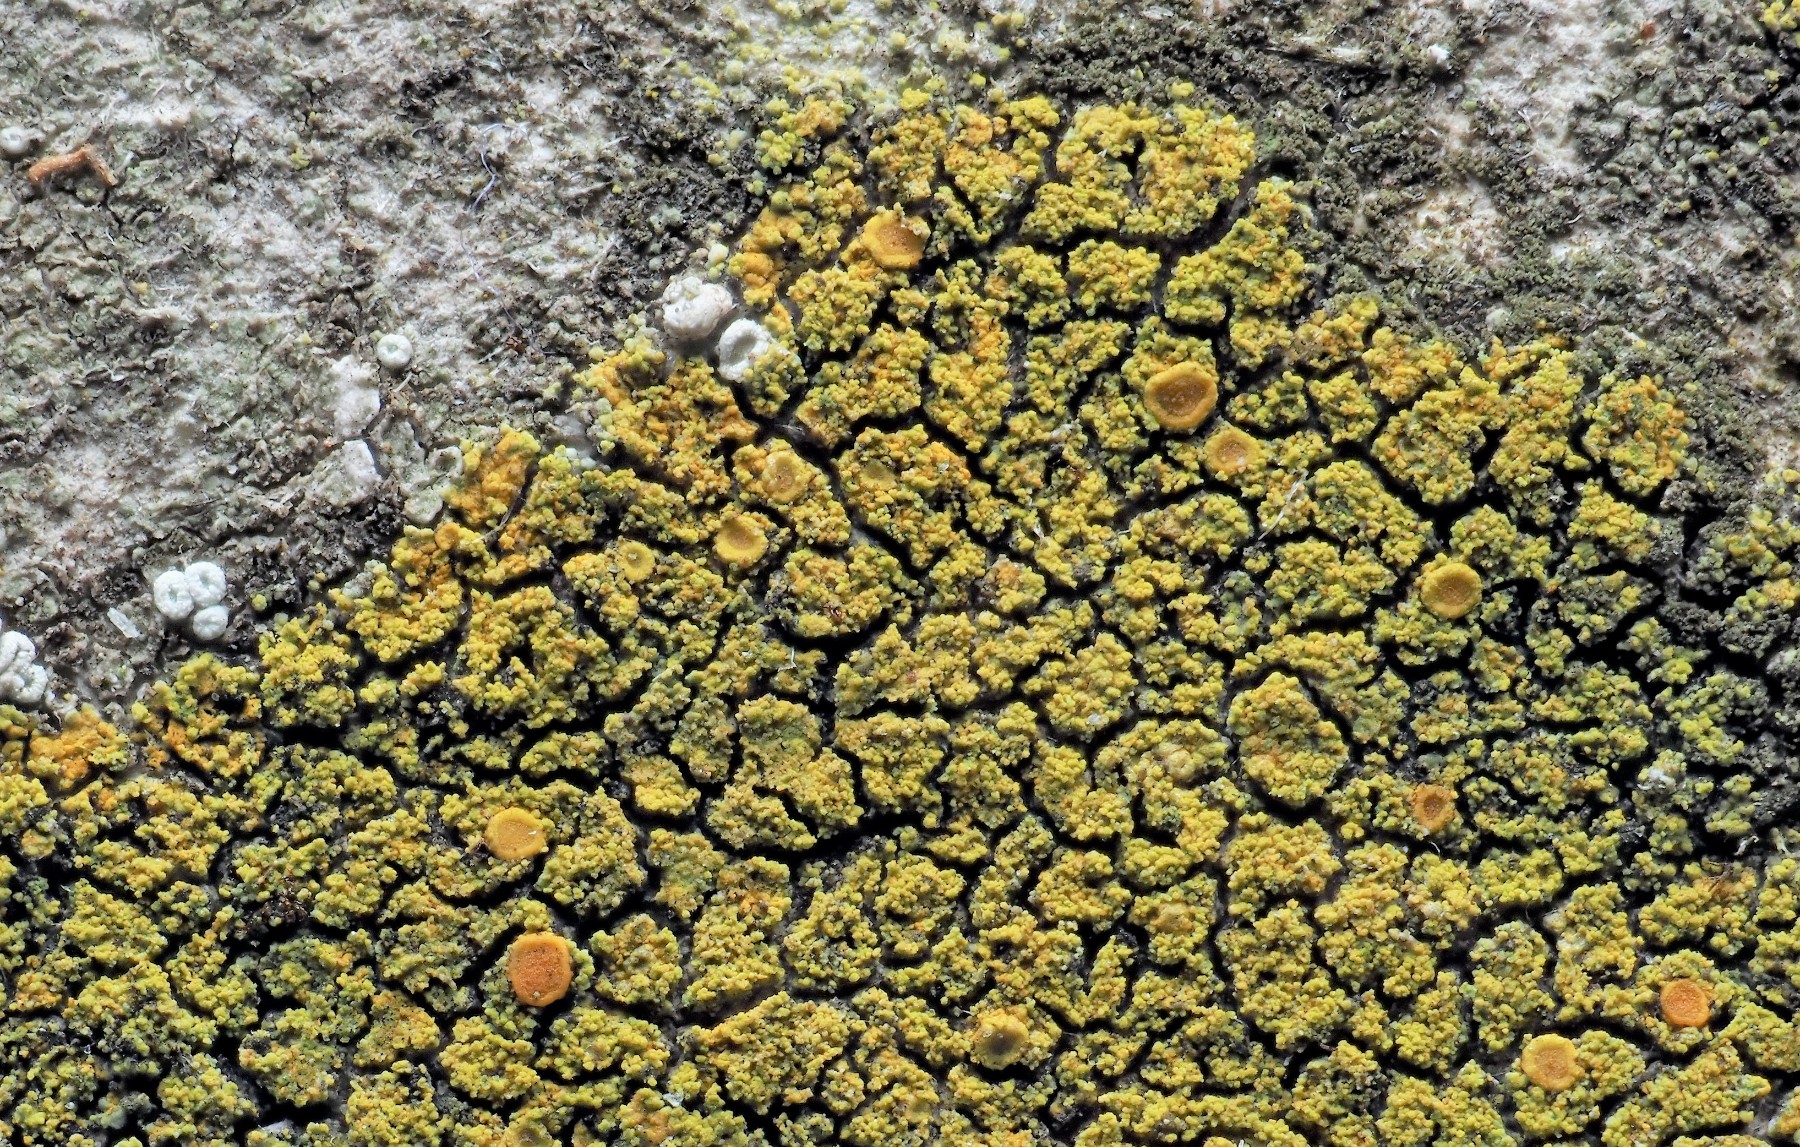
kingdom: Fungi
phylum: Ascomycota
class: Lecanoromycetes
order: Teloschistales
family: Teloschistaceae
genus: Flavoplaca
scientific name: Flavoplaca dichroa
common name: tofarvet orangelav
